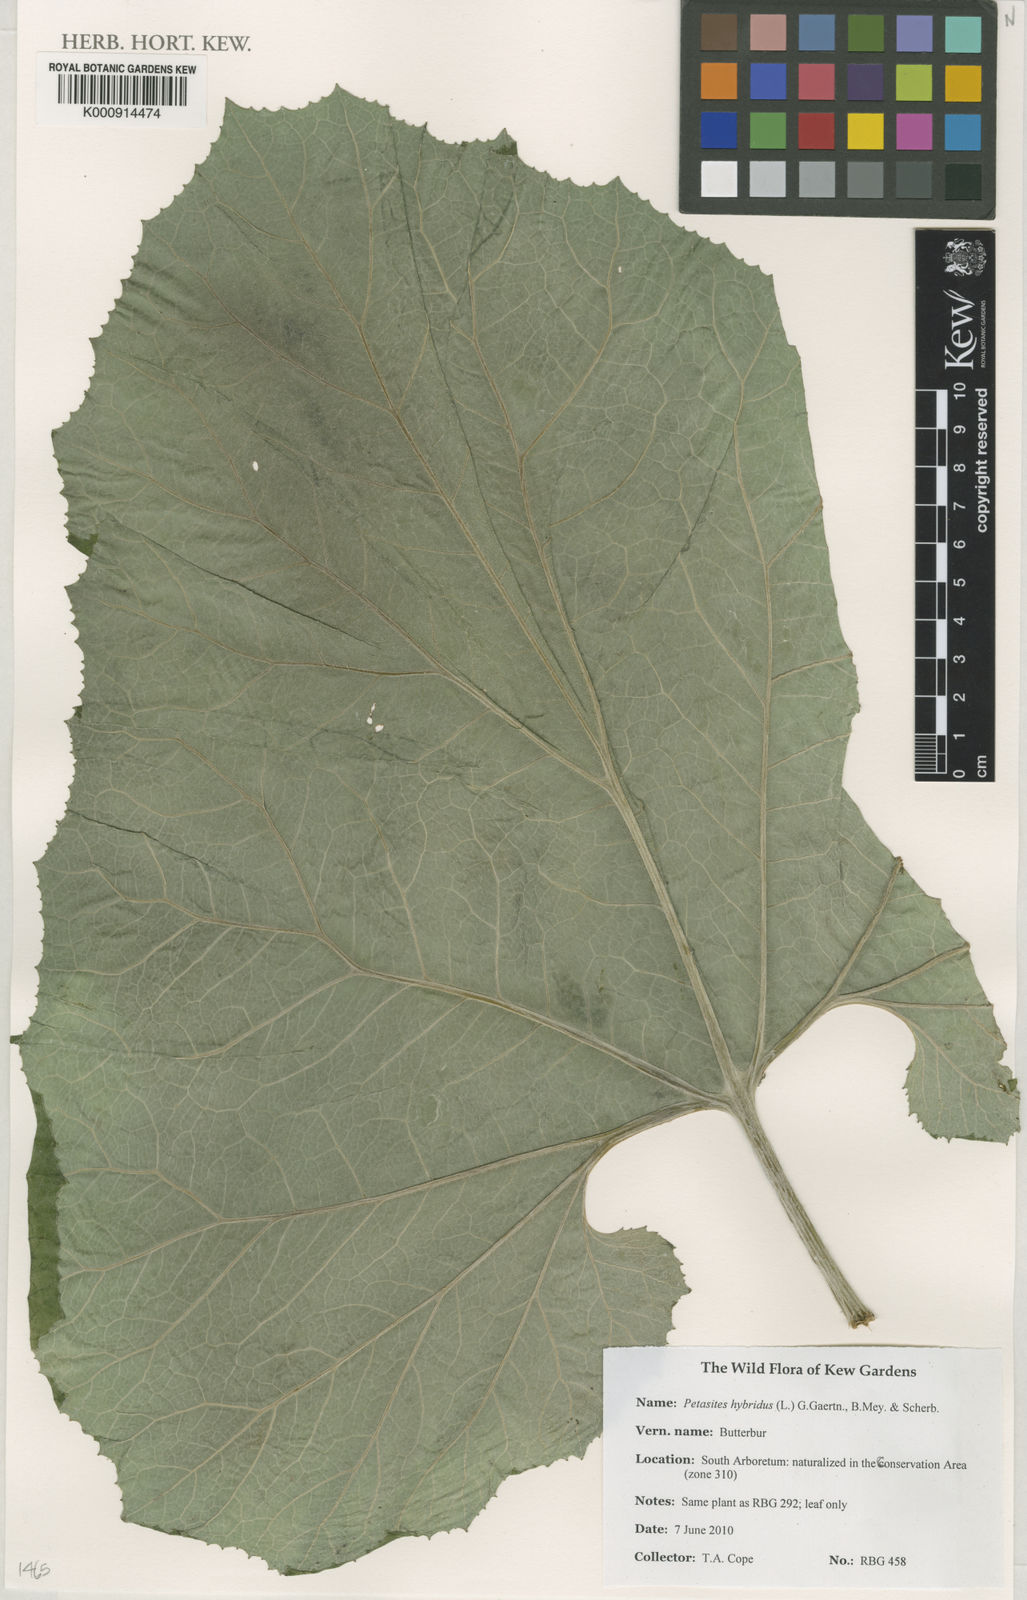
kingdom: Plantae
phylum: Tracheophyta
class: Magnoliopsida
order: Asterales
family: Asteraceae
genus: Petasites
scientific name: Petasites hybridus
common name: Butterbur
